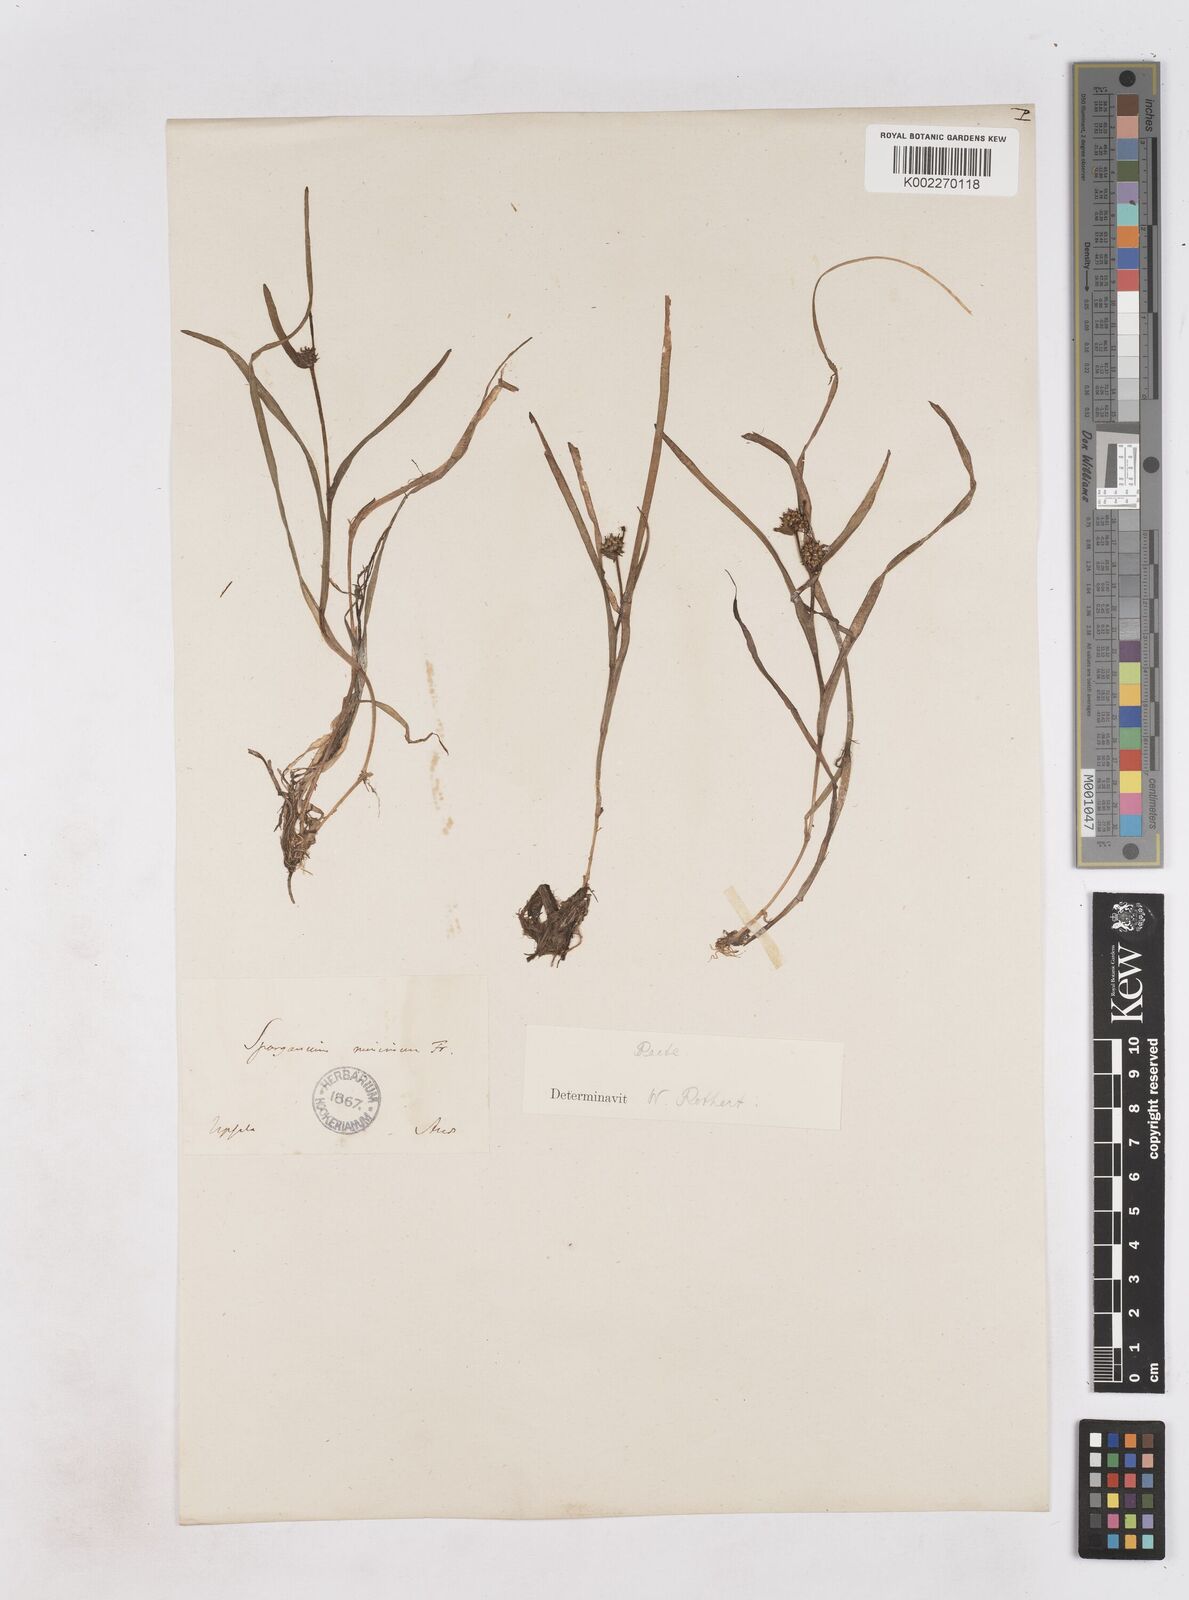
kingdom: Plantae
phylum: Tracheophyta
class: Liliopsida
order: Poales
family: Typhaceae
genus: Sparganium
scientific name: Sparganium natans
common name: Least bur-reed
